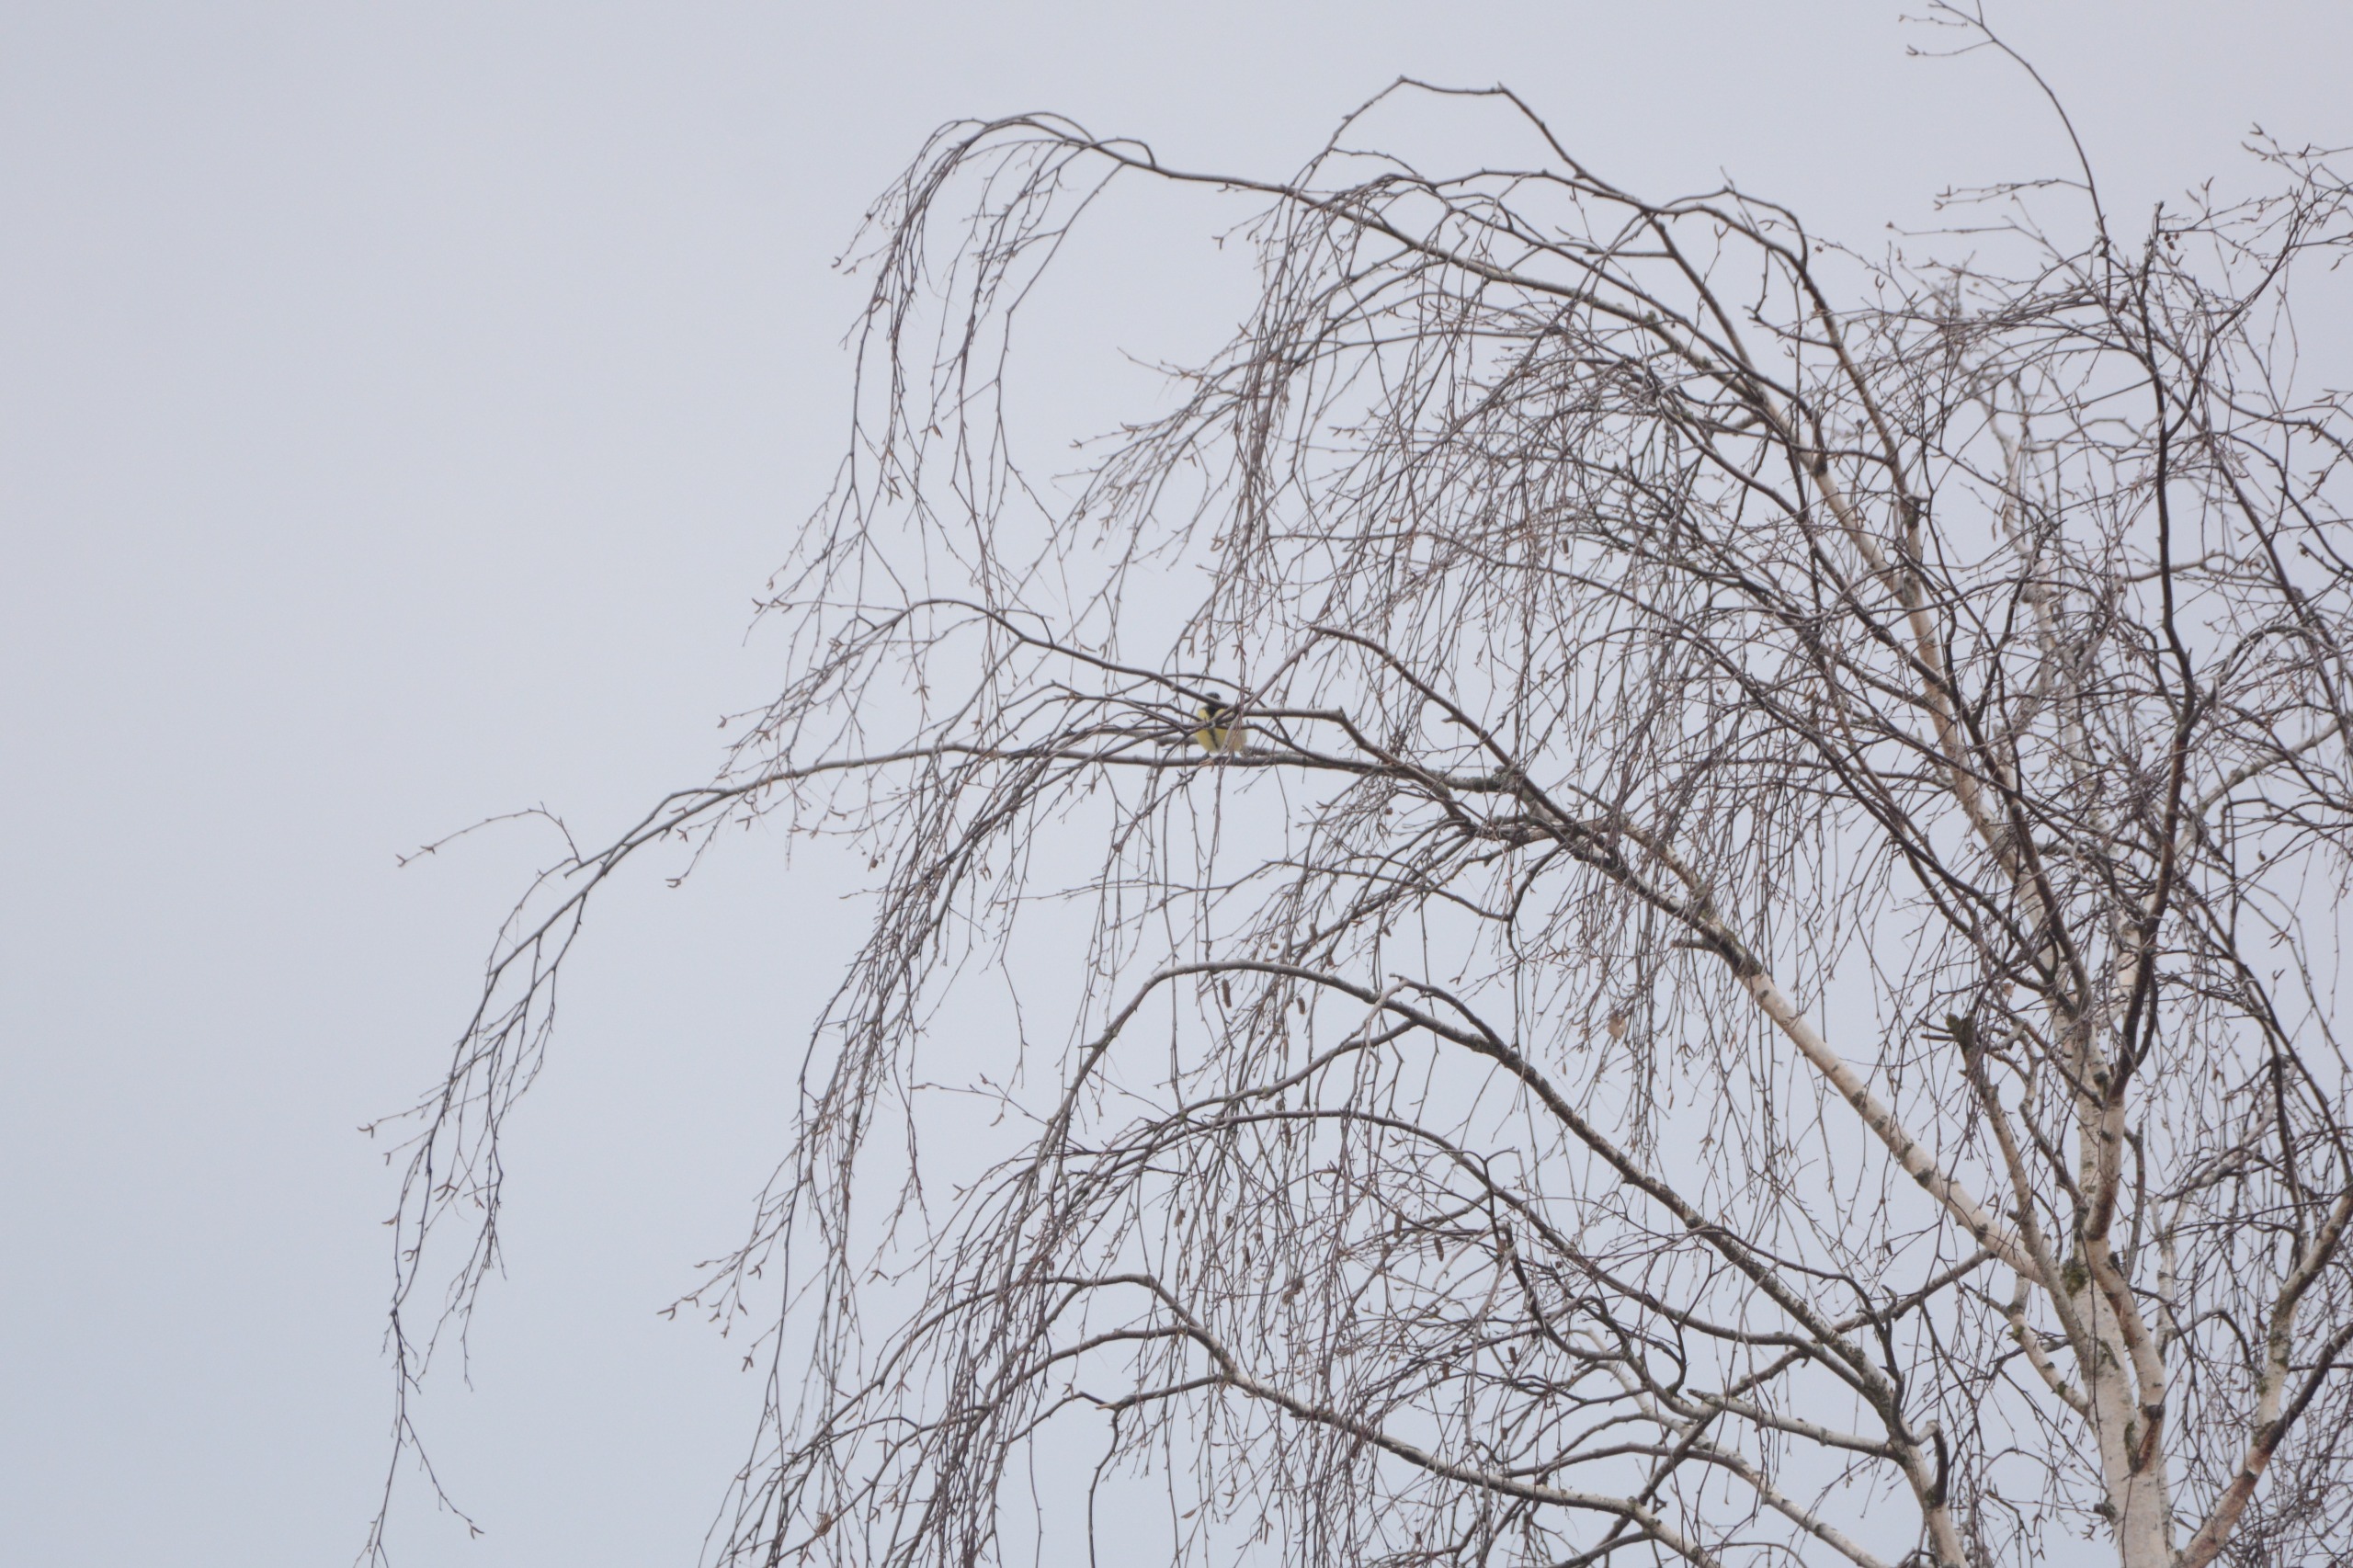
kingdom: Animalia
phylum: Chordata
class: Aves
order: Passeriformes
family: Paridae
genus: Parus
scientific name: Parus major
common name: Musvit
